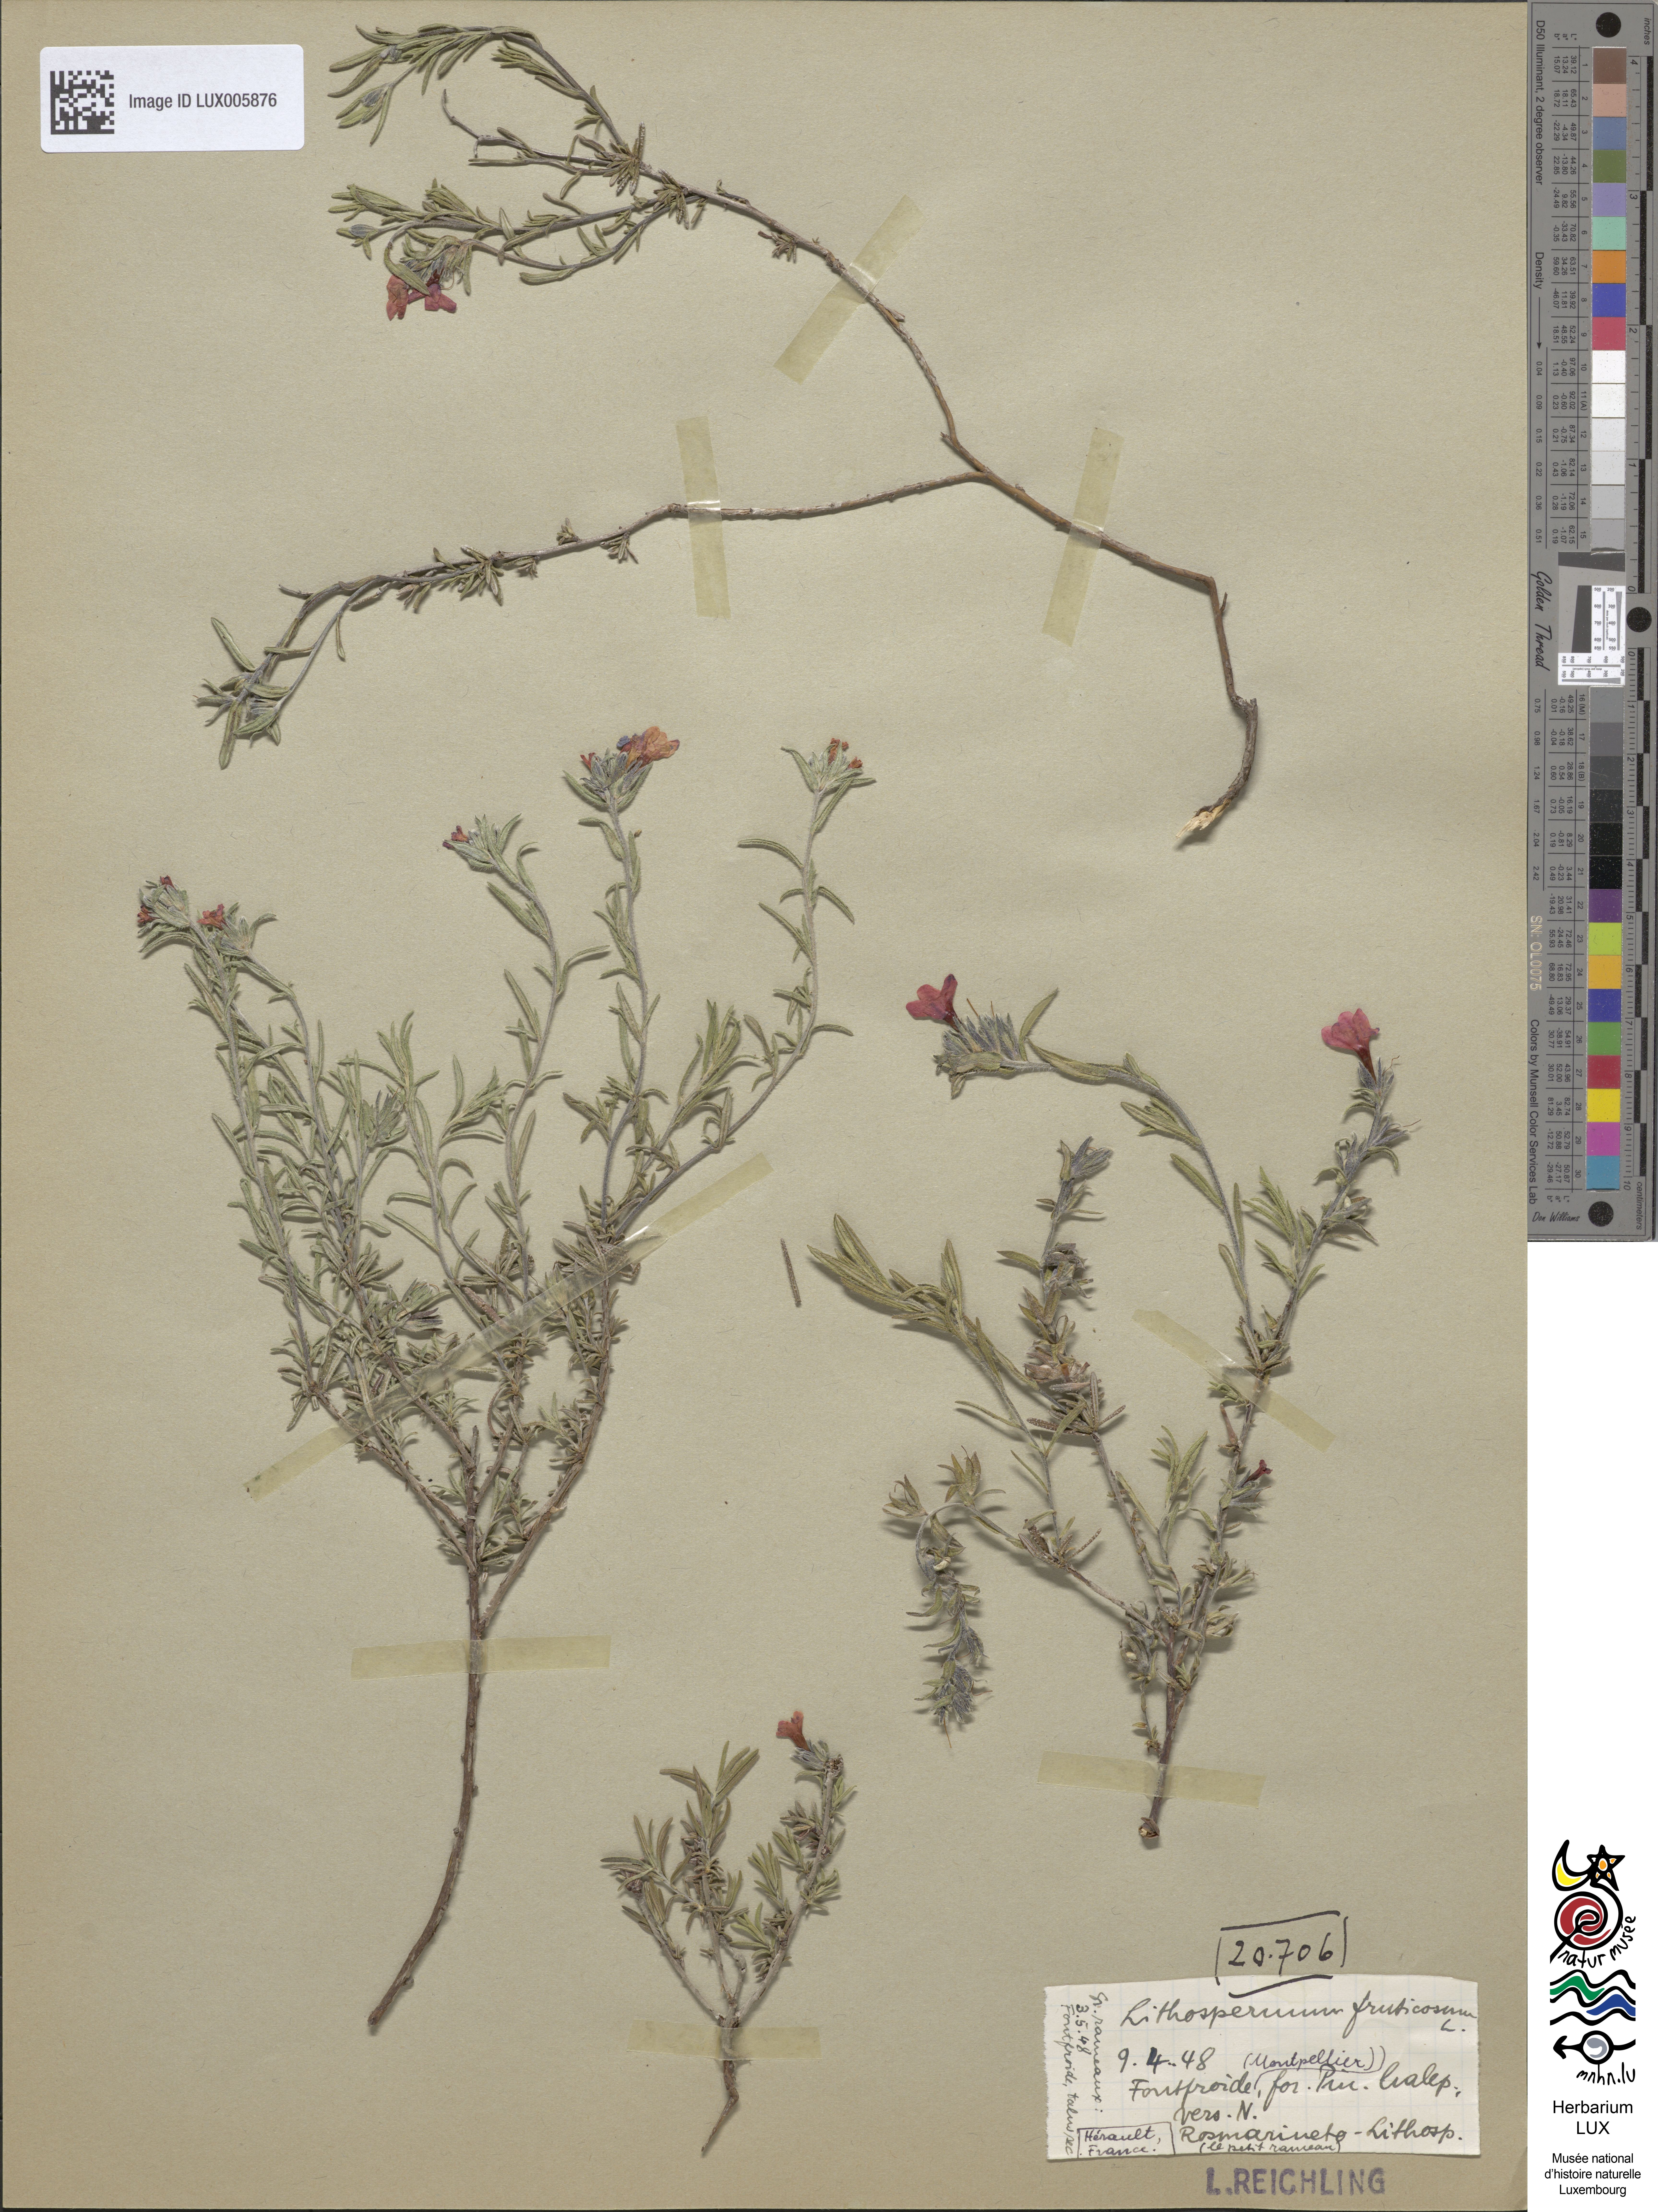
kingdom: Plantae
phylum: Tracheophyta
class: Magnoliopsida
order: Boraginales
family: Boraginaceae
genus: Lithodora
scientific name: Lithodora fruticosa
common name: Shrubby gromwell
